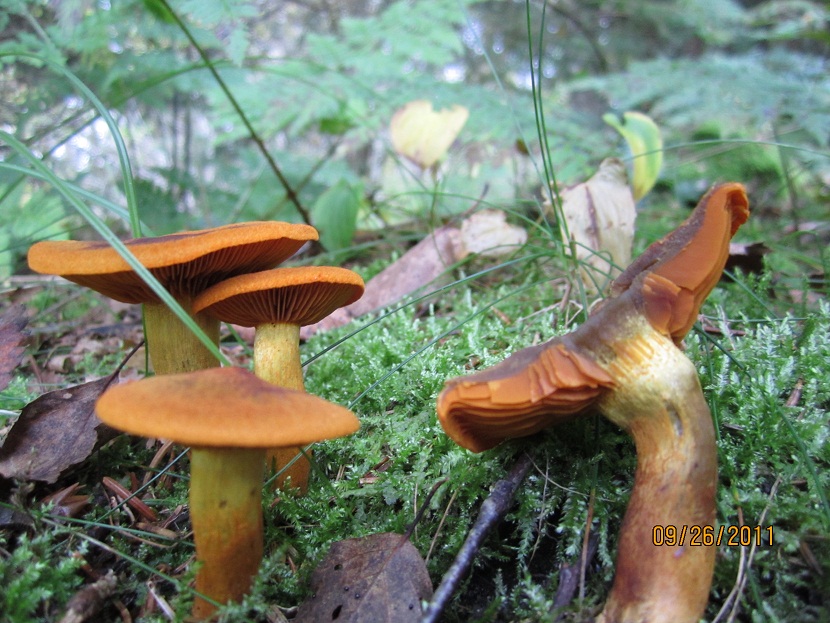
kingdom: Fungi
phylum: Basidiomycota
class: Agaricomycetes
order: Agaricales
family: Cortinariaceae
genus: Cortinarius
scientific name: Cortinarius malicorius
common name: grønkødet slørhat
